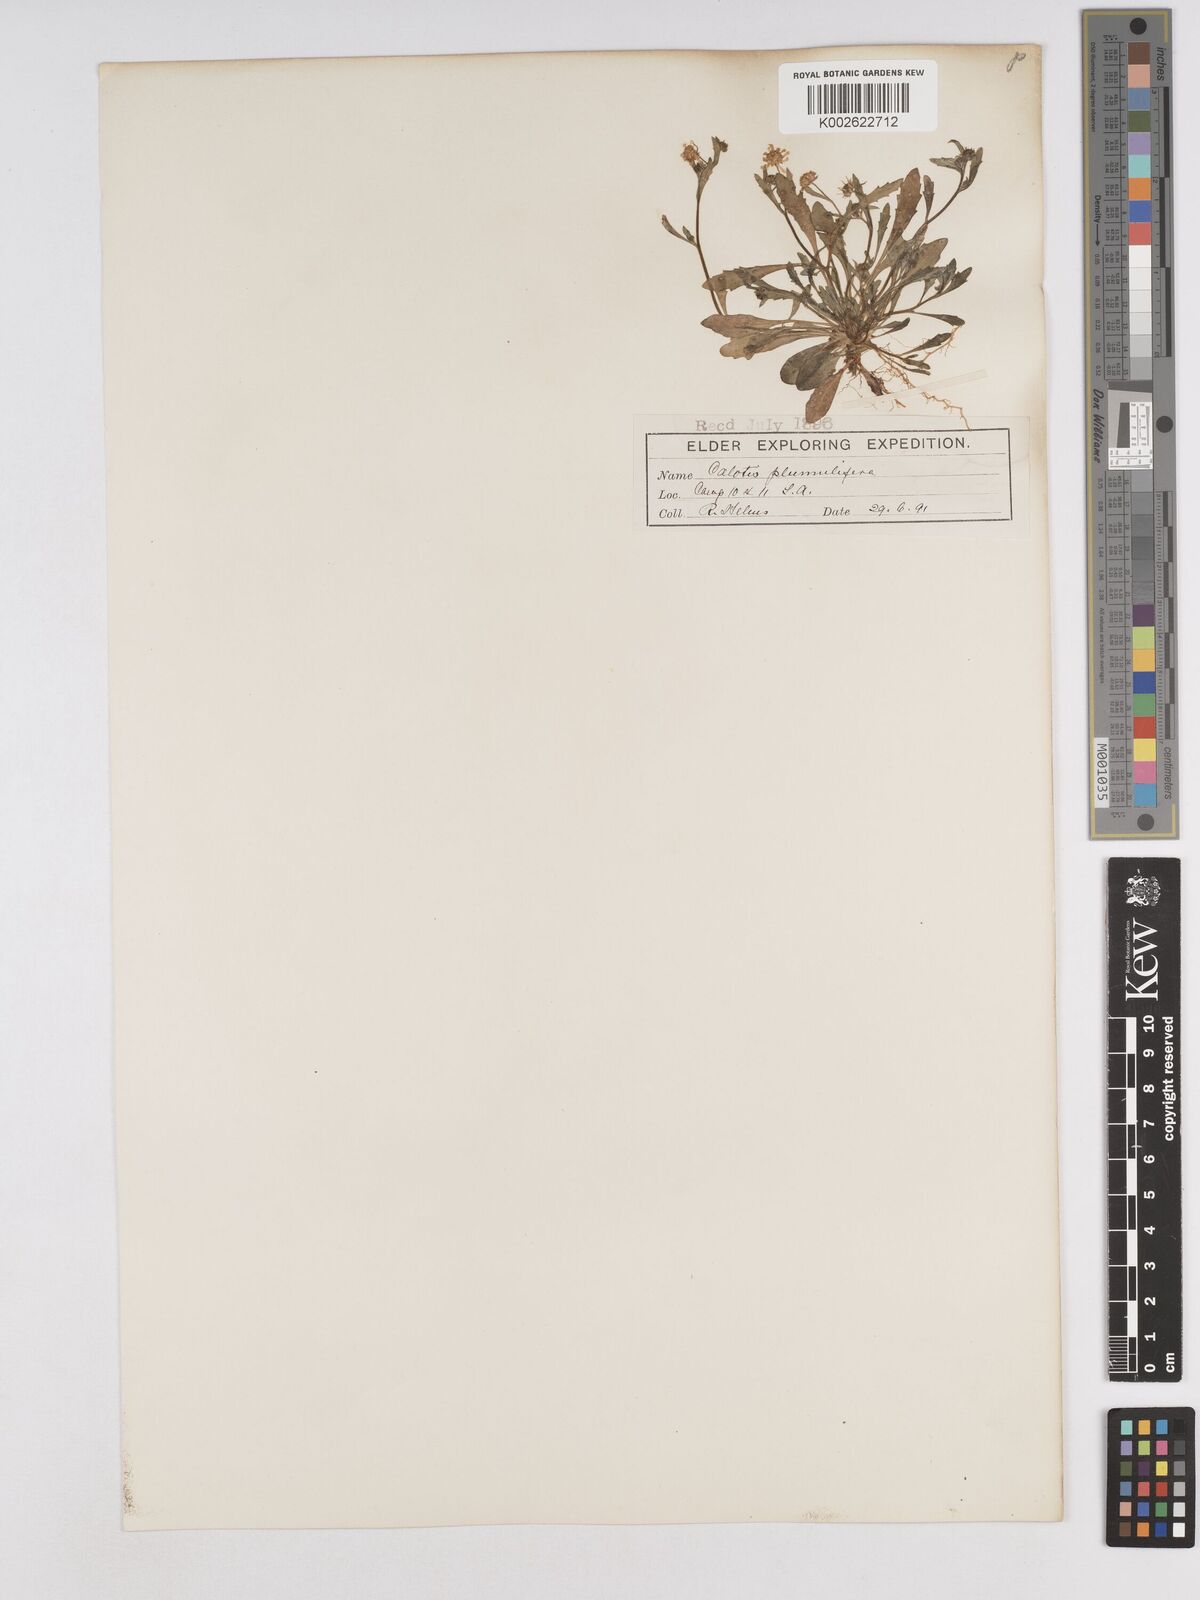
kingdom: Plantae
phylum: Tracheophyta
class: Magnoliopsida
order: Asterales
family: Asteraceae
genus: Calotis
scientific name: Calotis multicaulis
